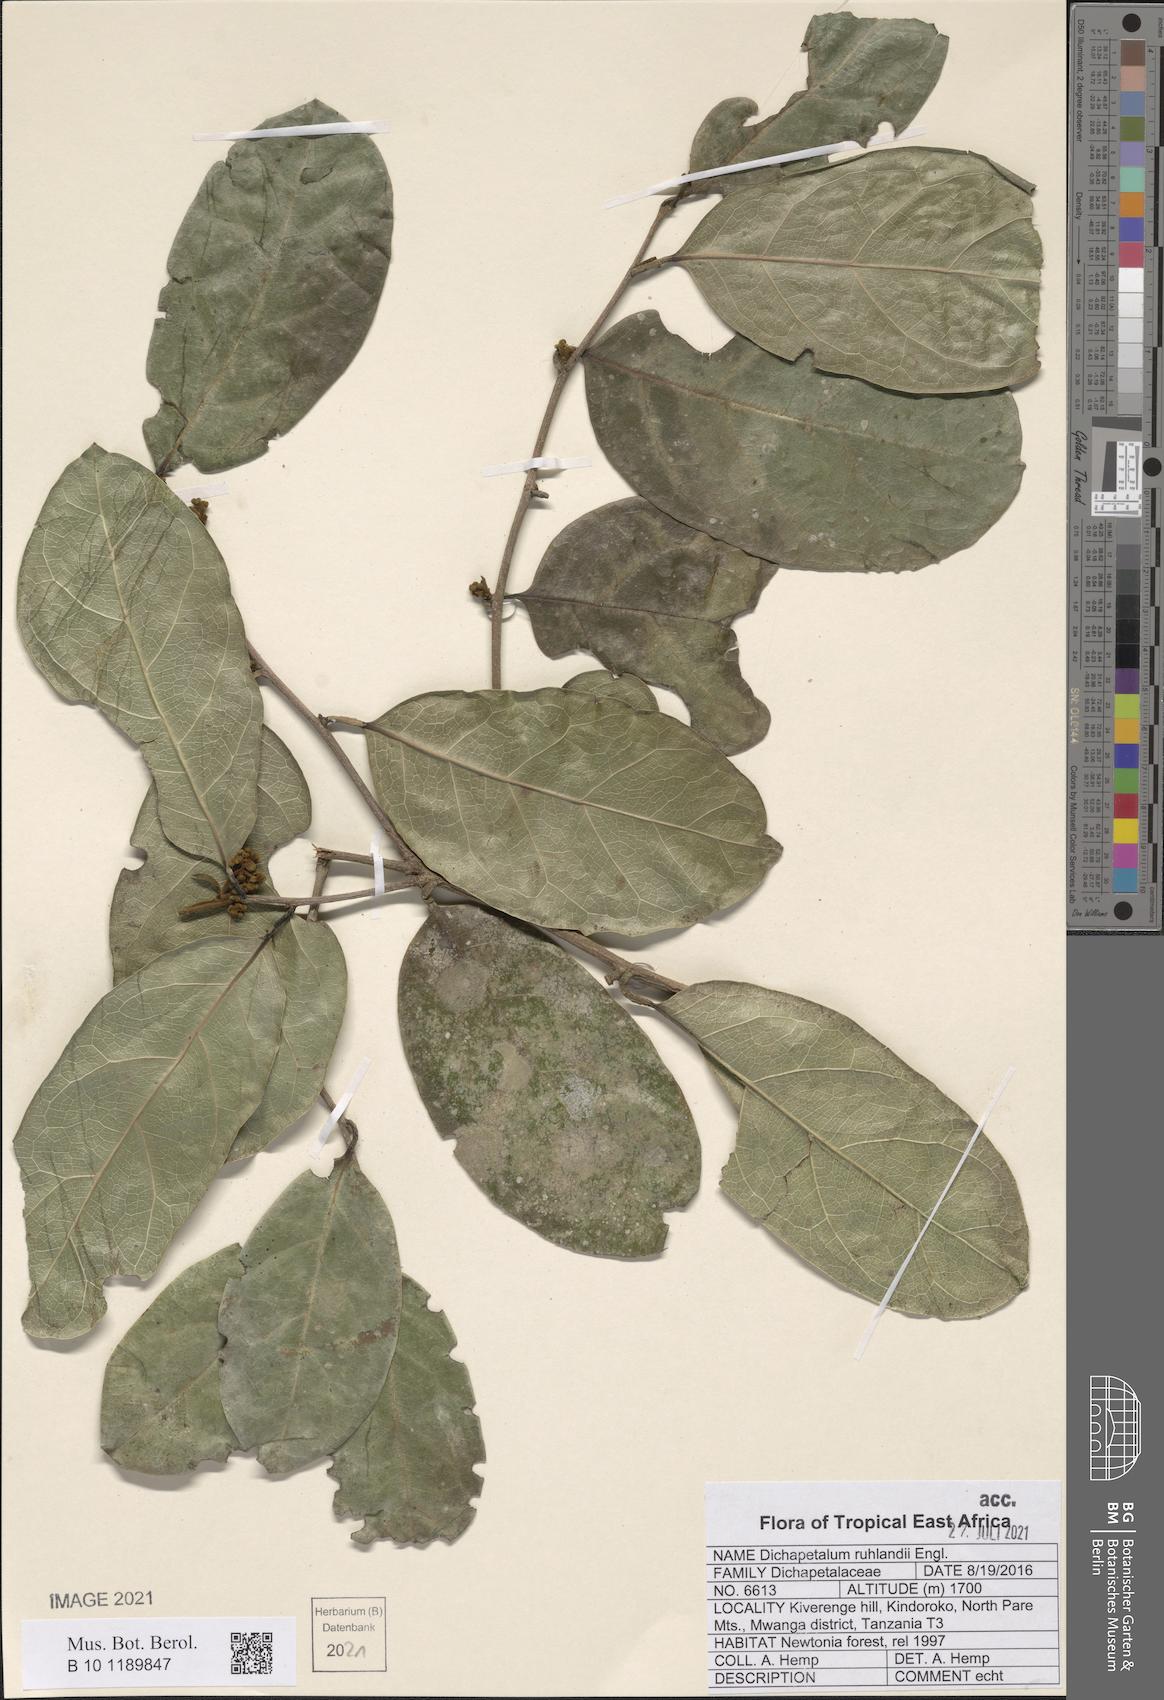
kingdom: Plantae
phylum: Tracheophyta
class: Magnoliopsida
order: Malpighiales
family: Dichapetalaceae
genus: Dichapetalum
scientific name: Dichapetalum ruhlandii
